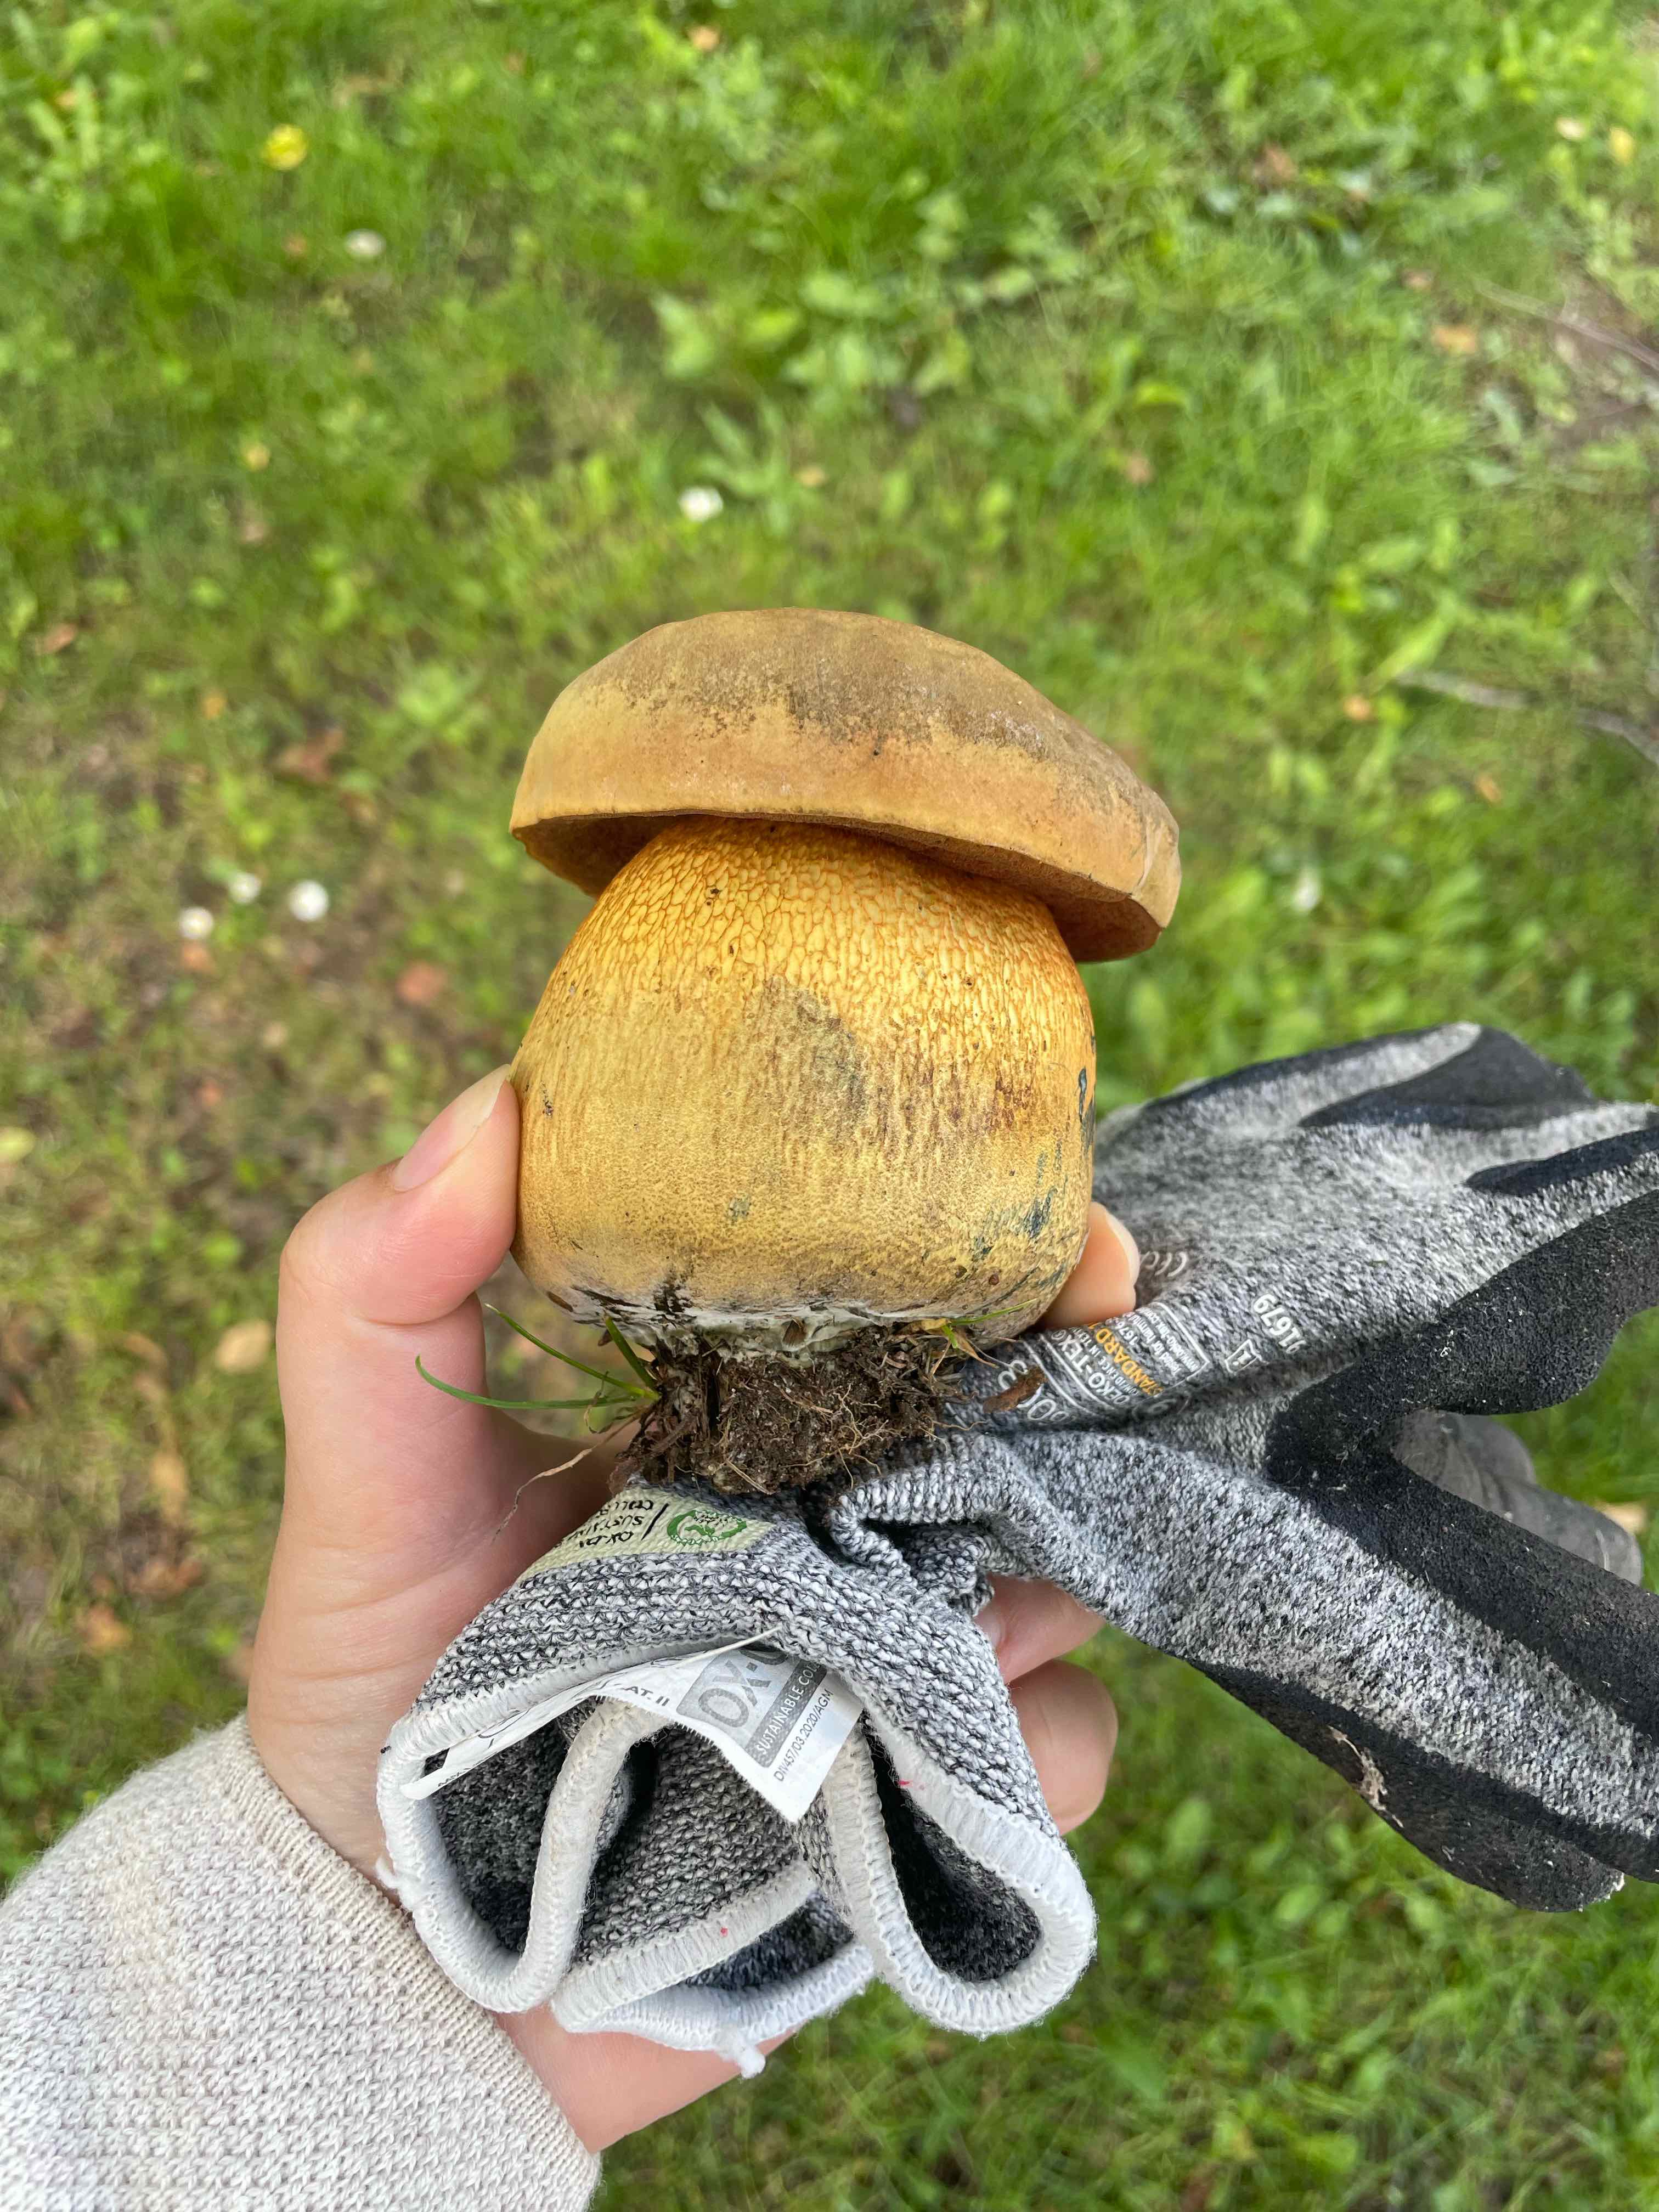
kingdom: Fungi
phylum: Basidiomycota
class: Agaricomycetes
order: Boletales
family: Boletaceae
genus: Suillellus
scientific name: Suillellus luridus
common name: netstokket indigorørhat
